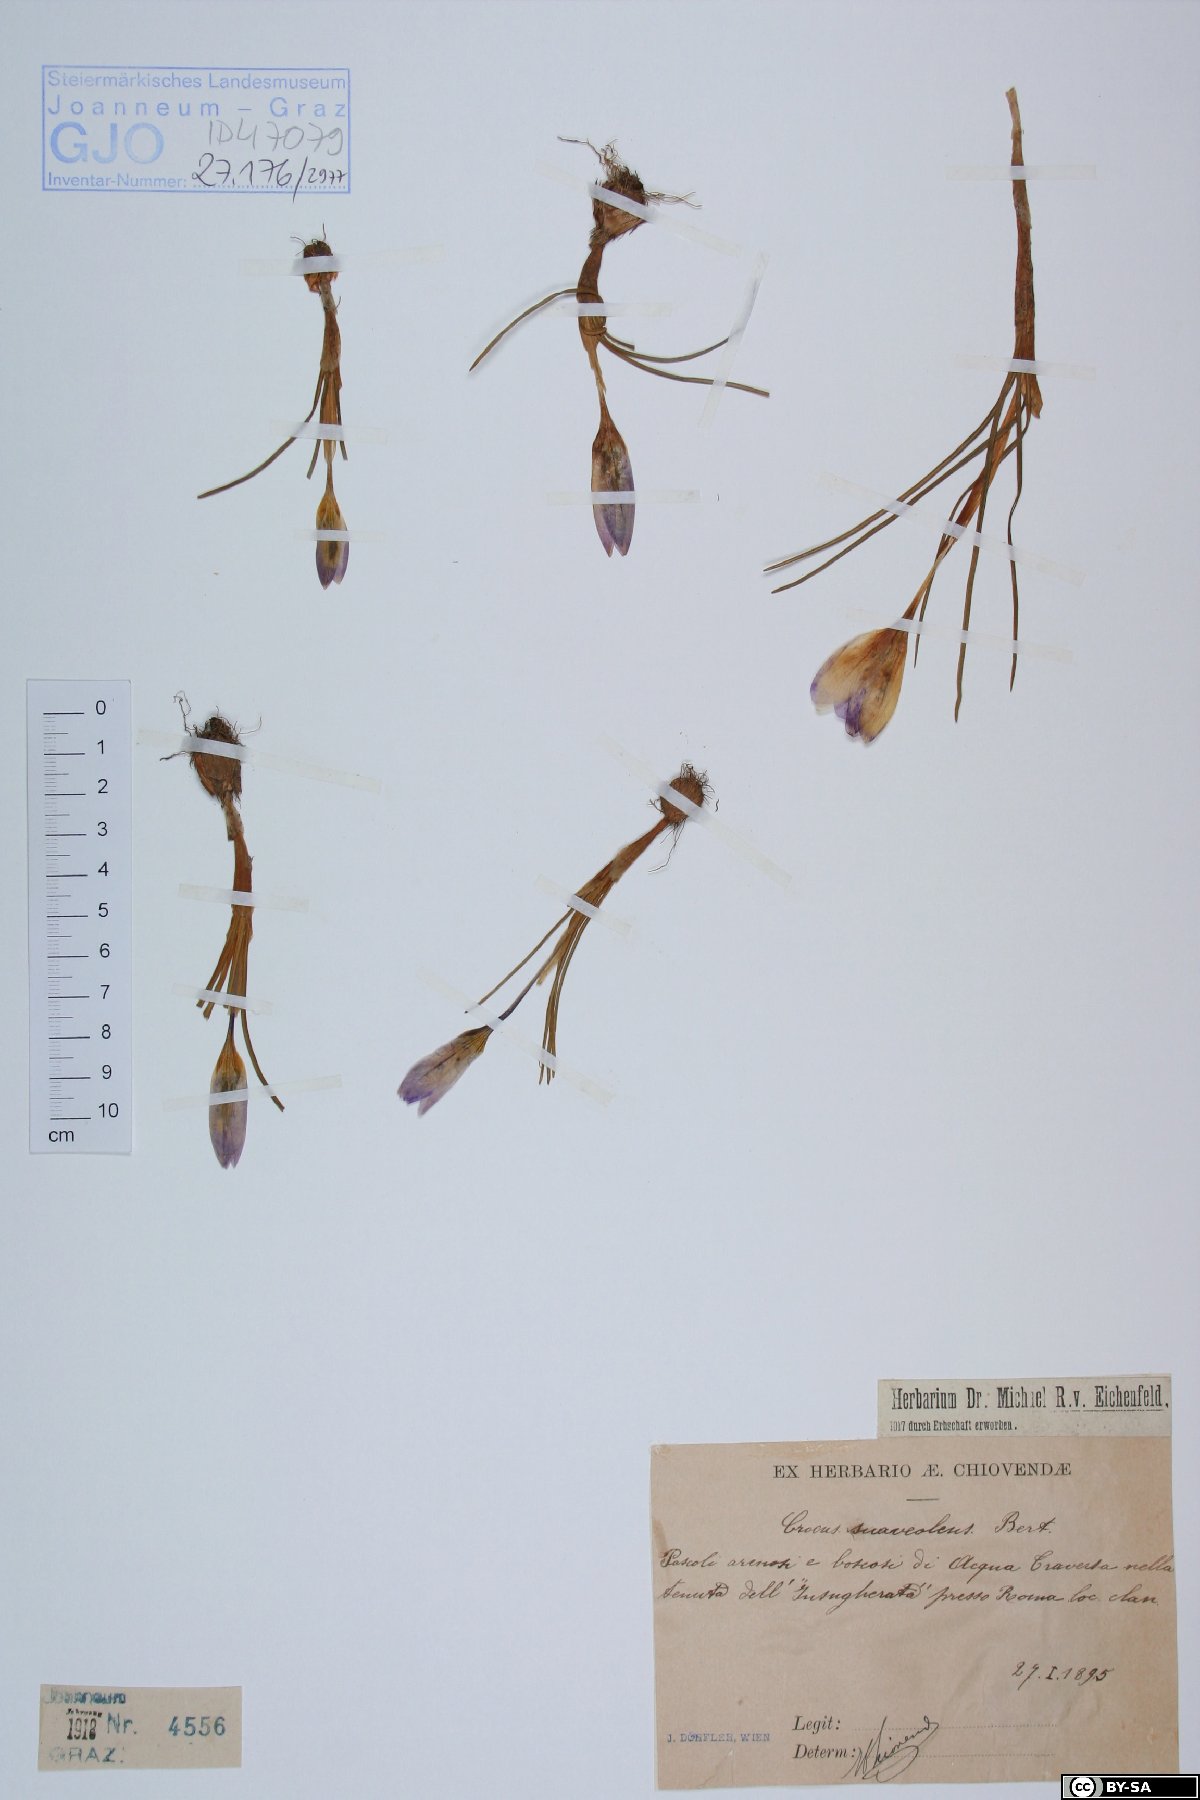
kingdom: Plantae
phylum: Tracheophyta
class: Liliopsida
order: Asparagales
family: Iridaceae
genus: Crocus
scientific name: Crocus suaveolens
